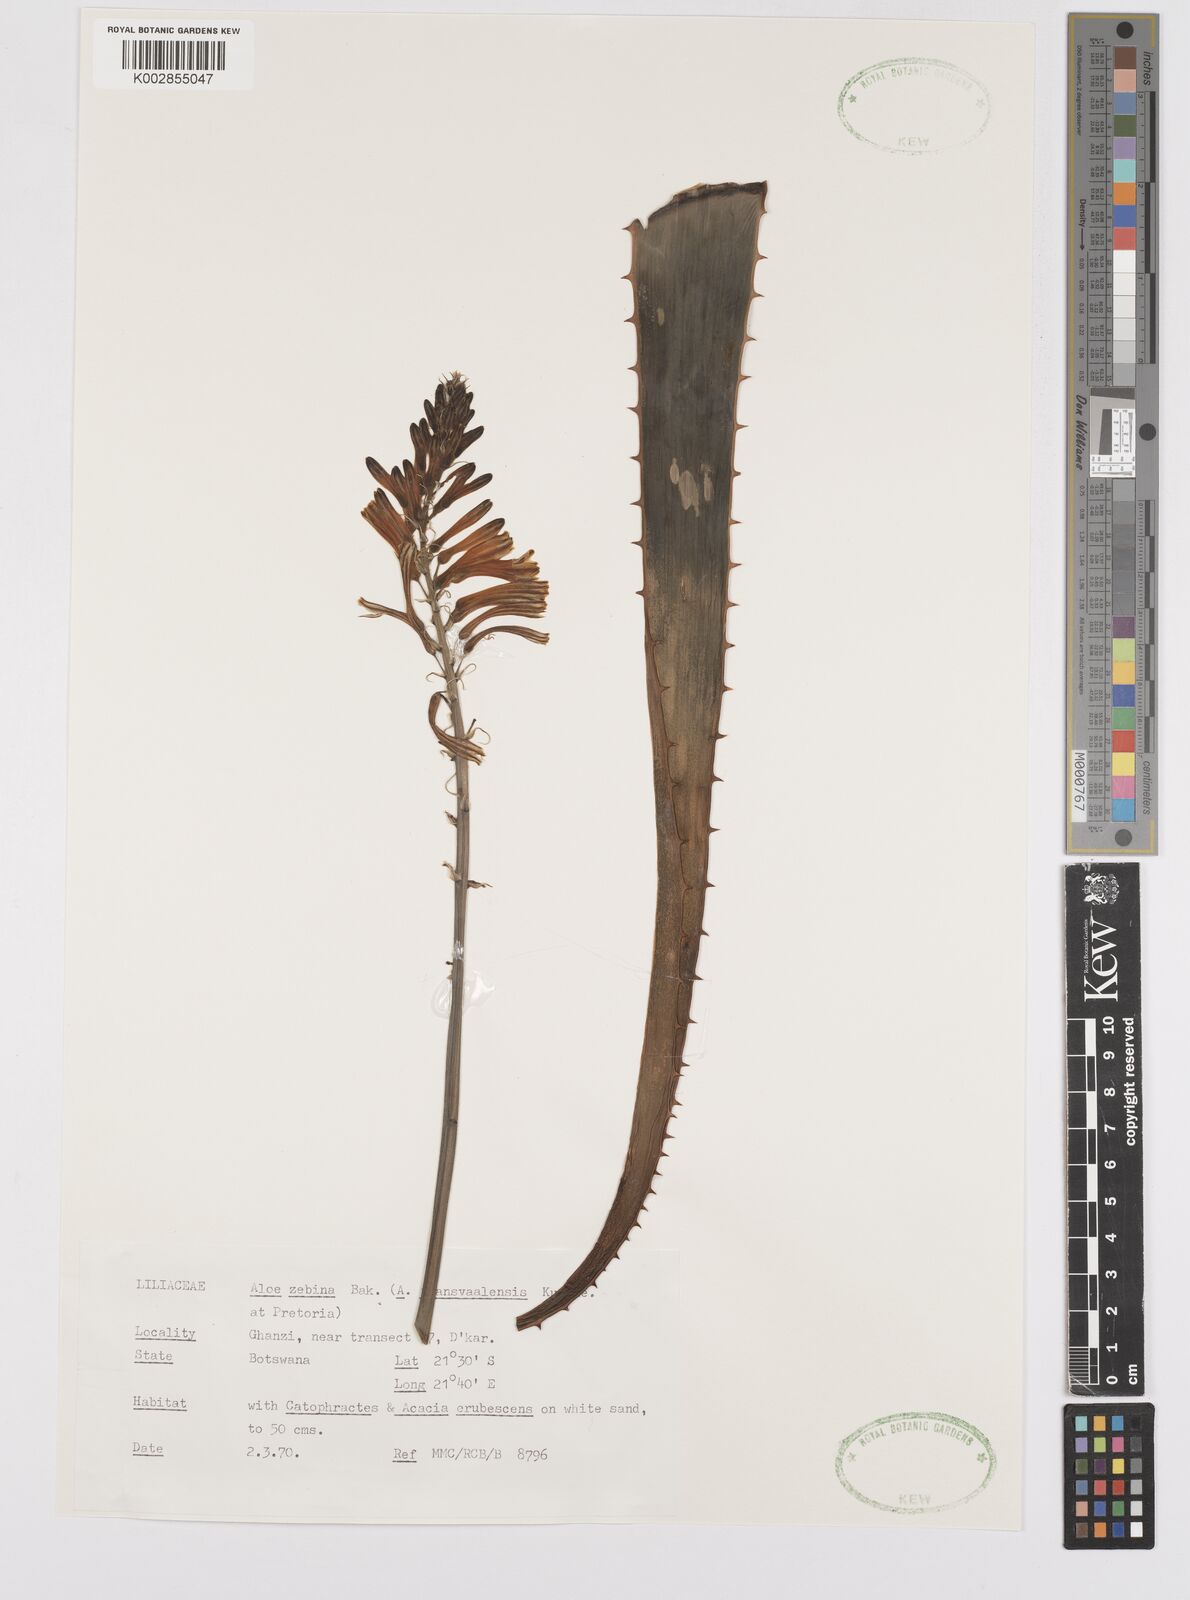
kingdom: Plantae
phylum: Tracheophyta
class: Liliopsida
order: Asparagales
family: Asphodelaceae
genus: Aloe
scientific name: Aloe zebrina
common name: Zebra-leaf aloe
